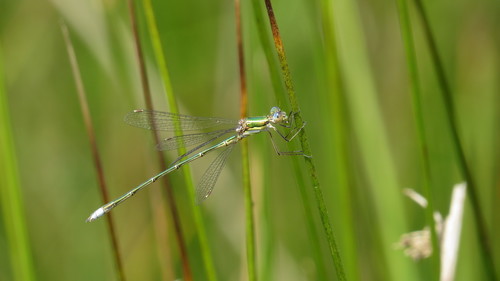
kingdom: Animalia
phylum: Arthropoda
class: Insecta
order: Odonata
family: Lestidae
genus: Lestes
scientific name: Lestes virens
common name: Small emerald spreadwing
